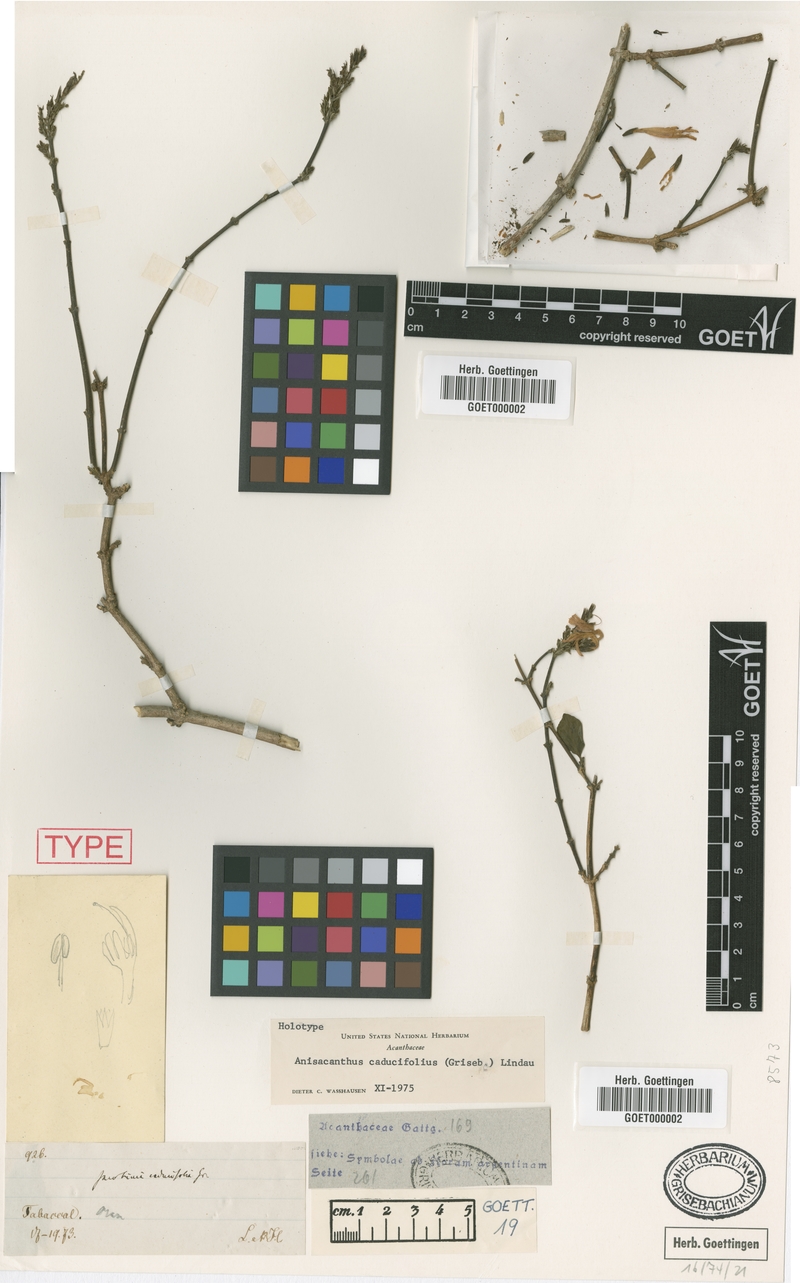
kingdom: Plantae
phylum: Tracheophyta
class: Magnoliopsida
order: Lamiales
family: Acanthaceae
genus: Thyrsacanthus
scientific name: Thyrsacanthus boliviensis
